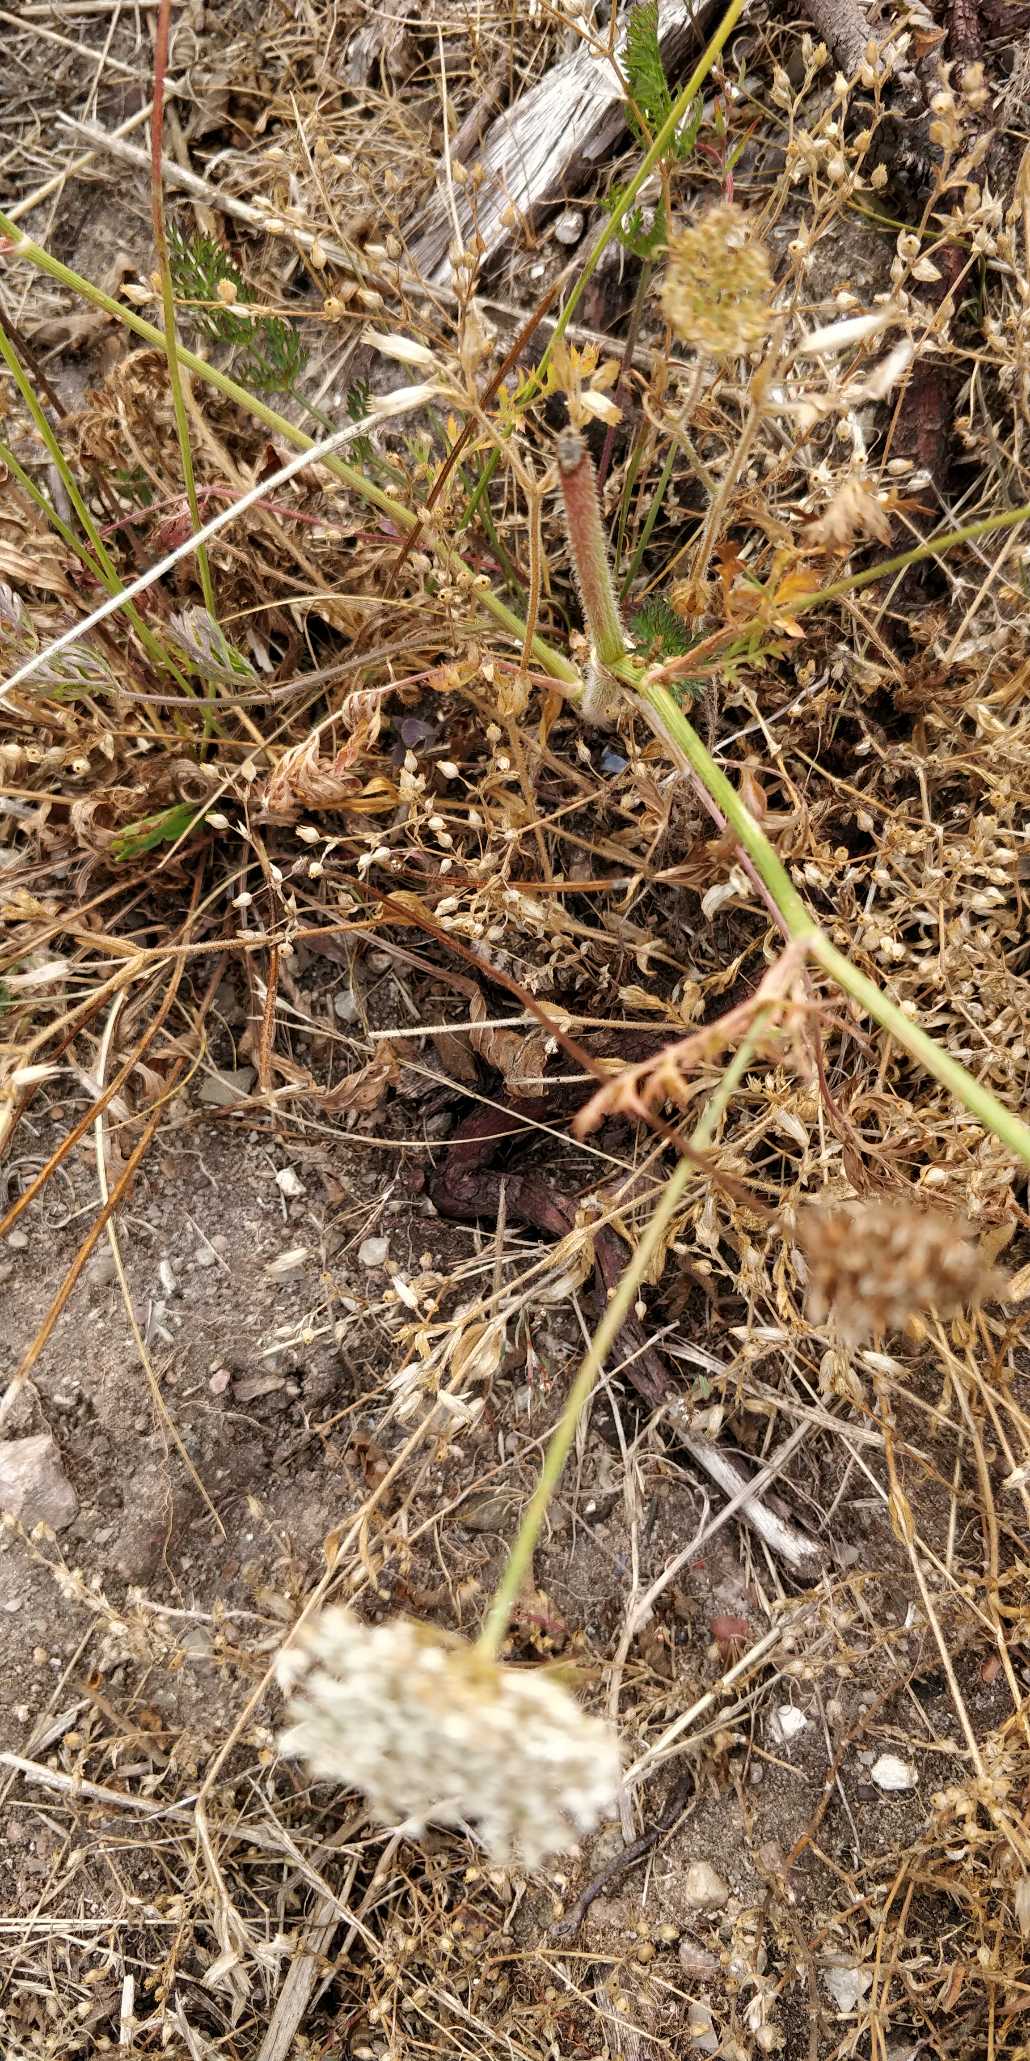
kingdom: Plantae
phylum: Tracheophyta
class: Magnoliopsida
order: Apiales
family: Apiaceae
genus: Daucus
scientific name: Daucus carota
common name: Vild gulerod
